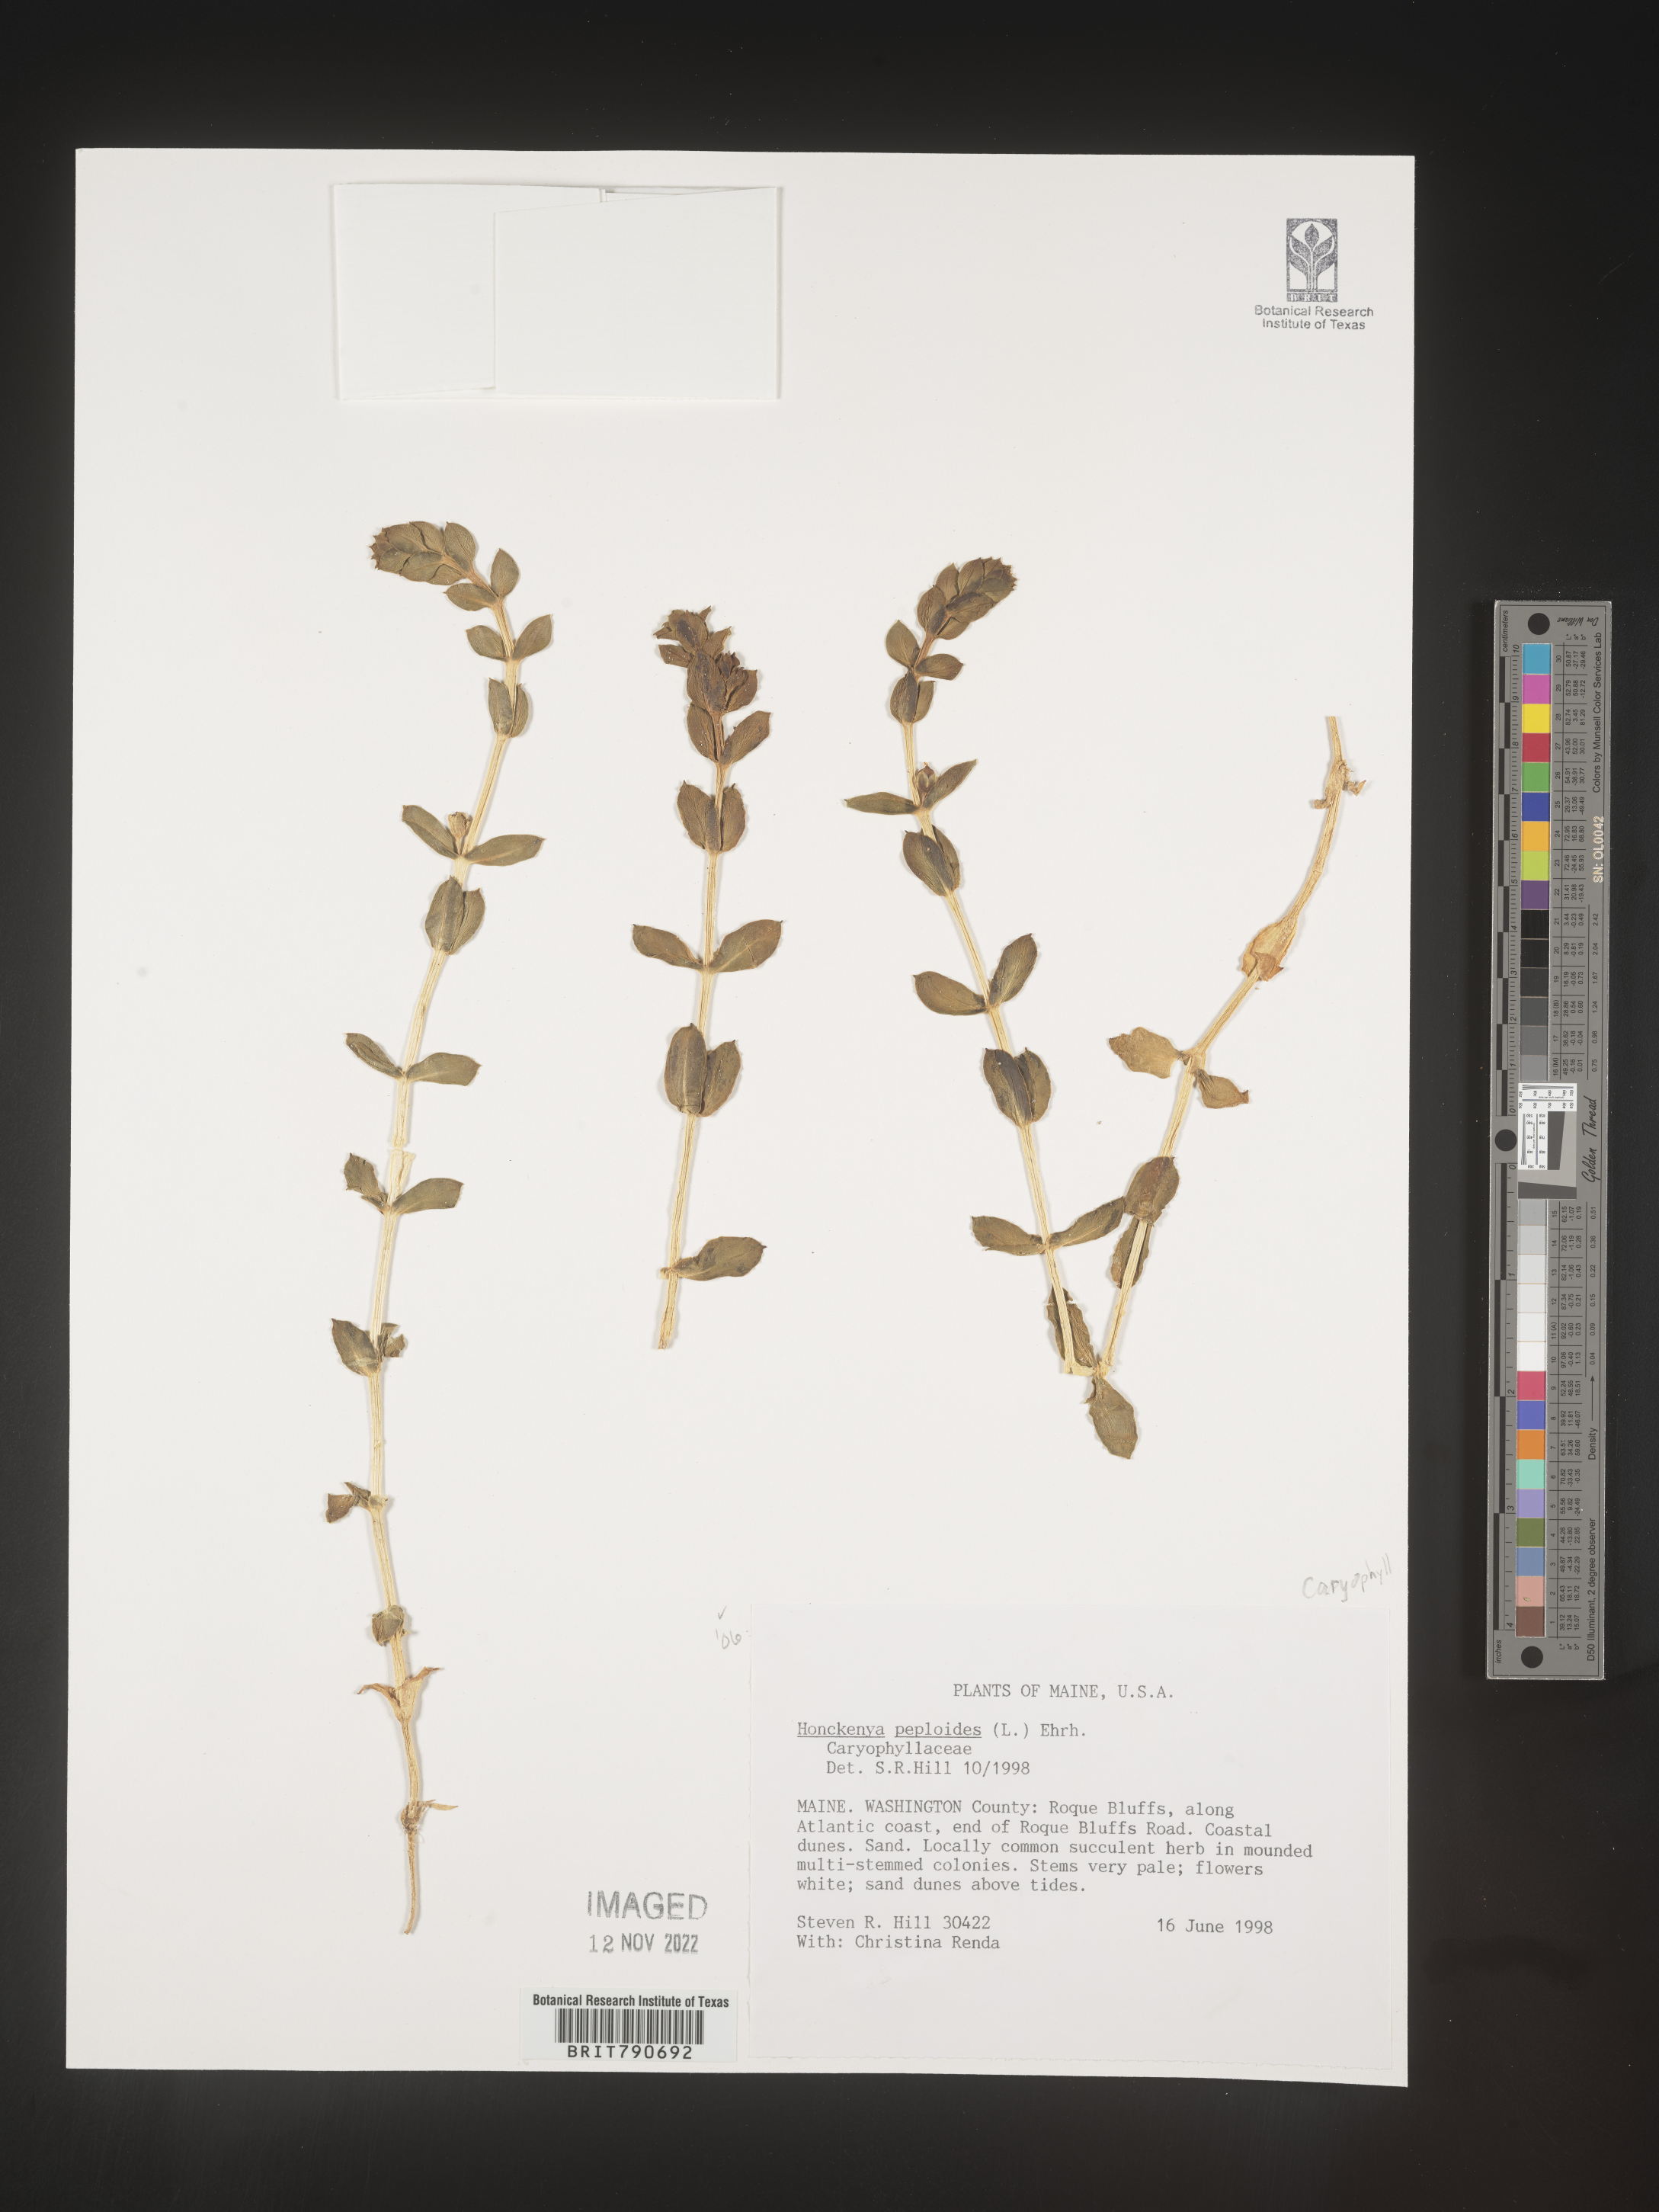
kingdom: Plantae
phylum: Tracheophyta
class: Magnoliopsida
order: Malvales
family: Malvaceae
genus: Clappertonia
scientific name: Clappertonia
